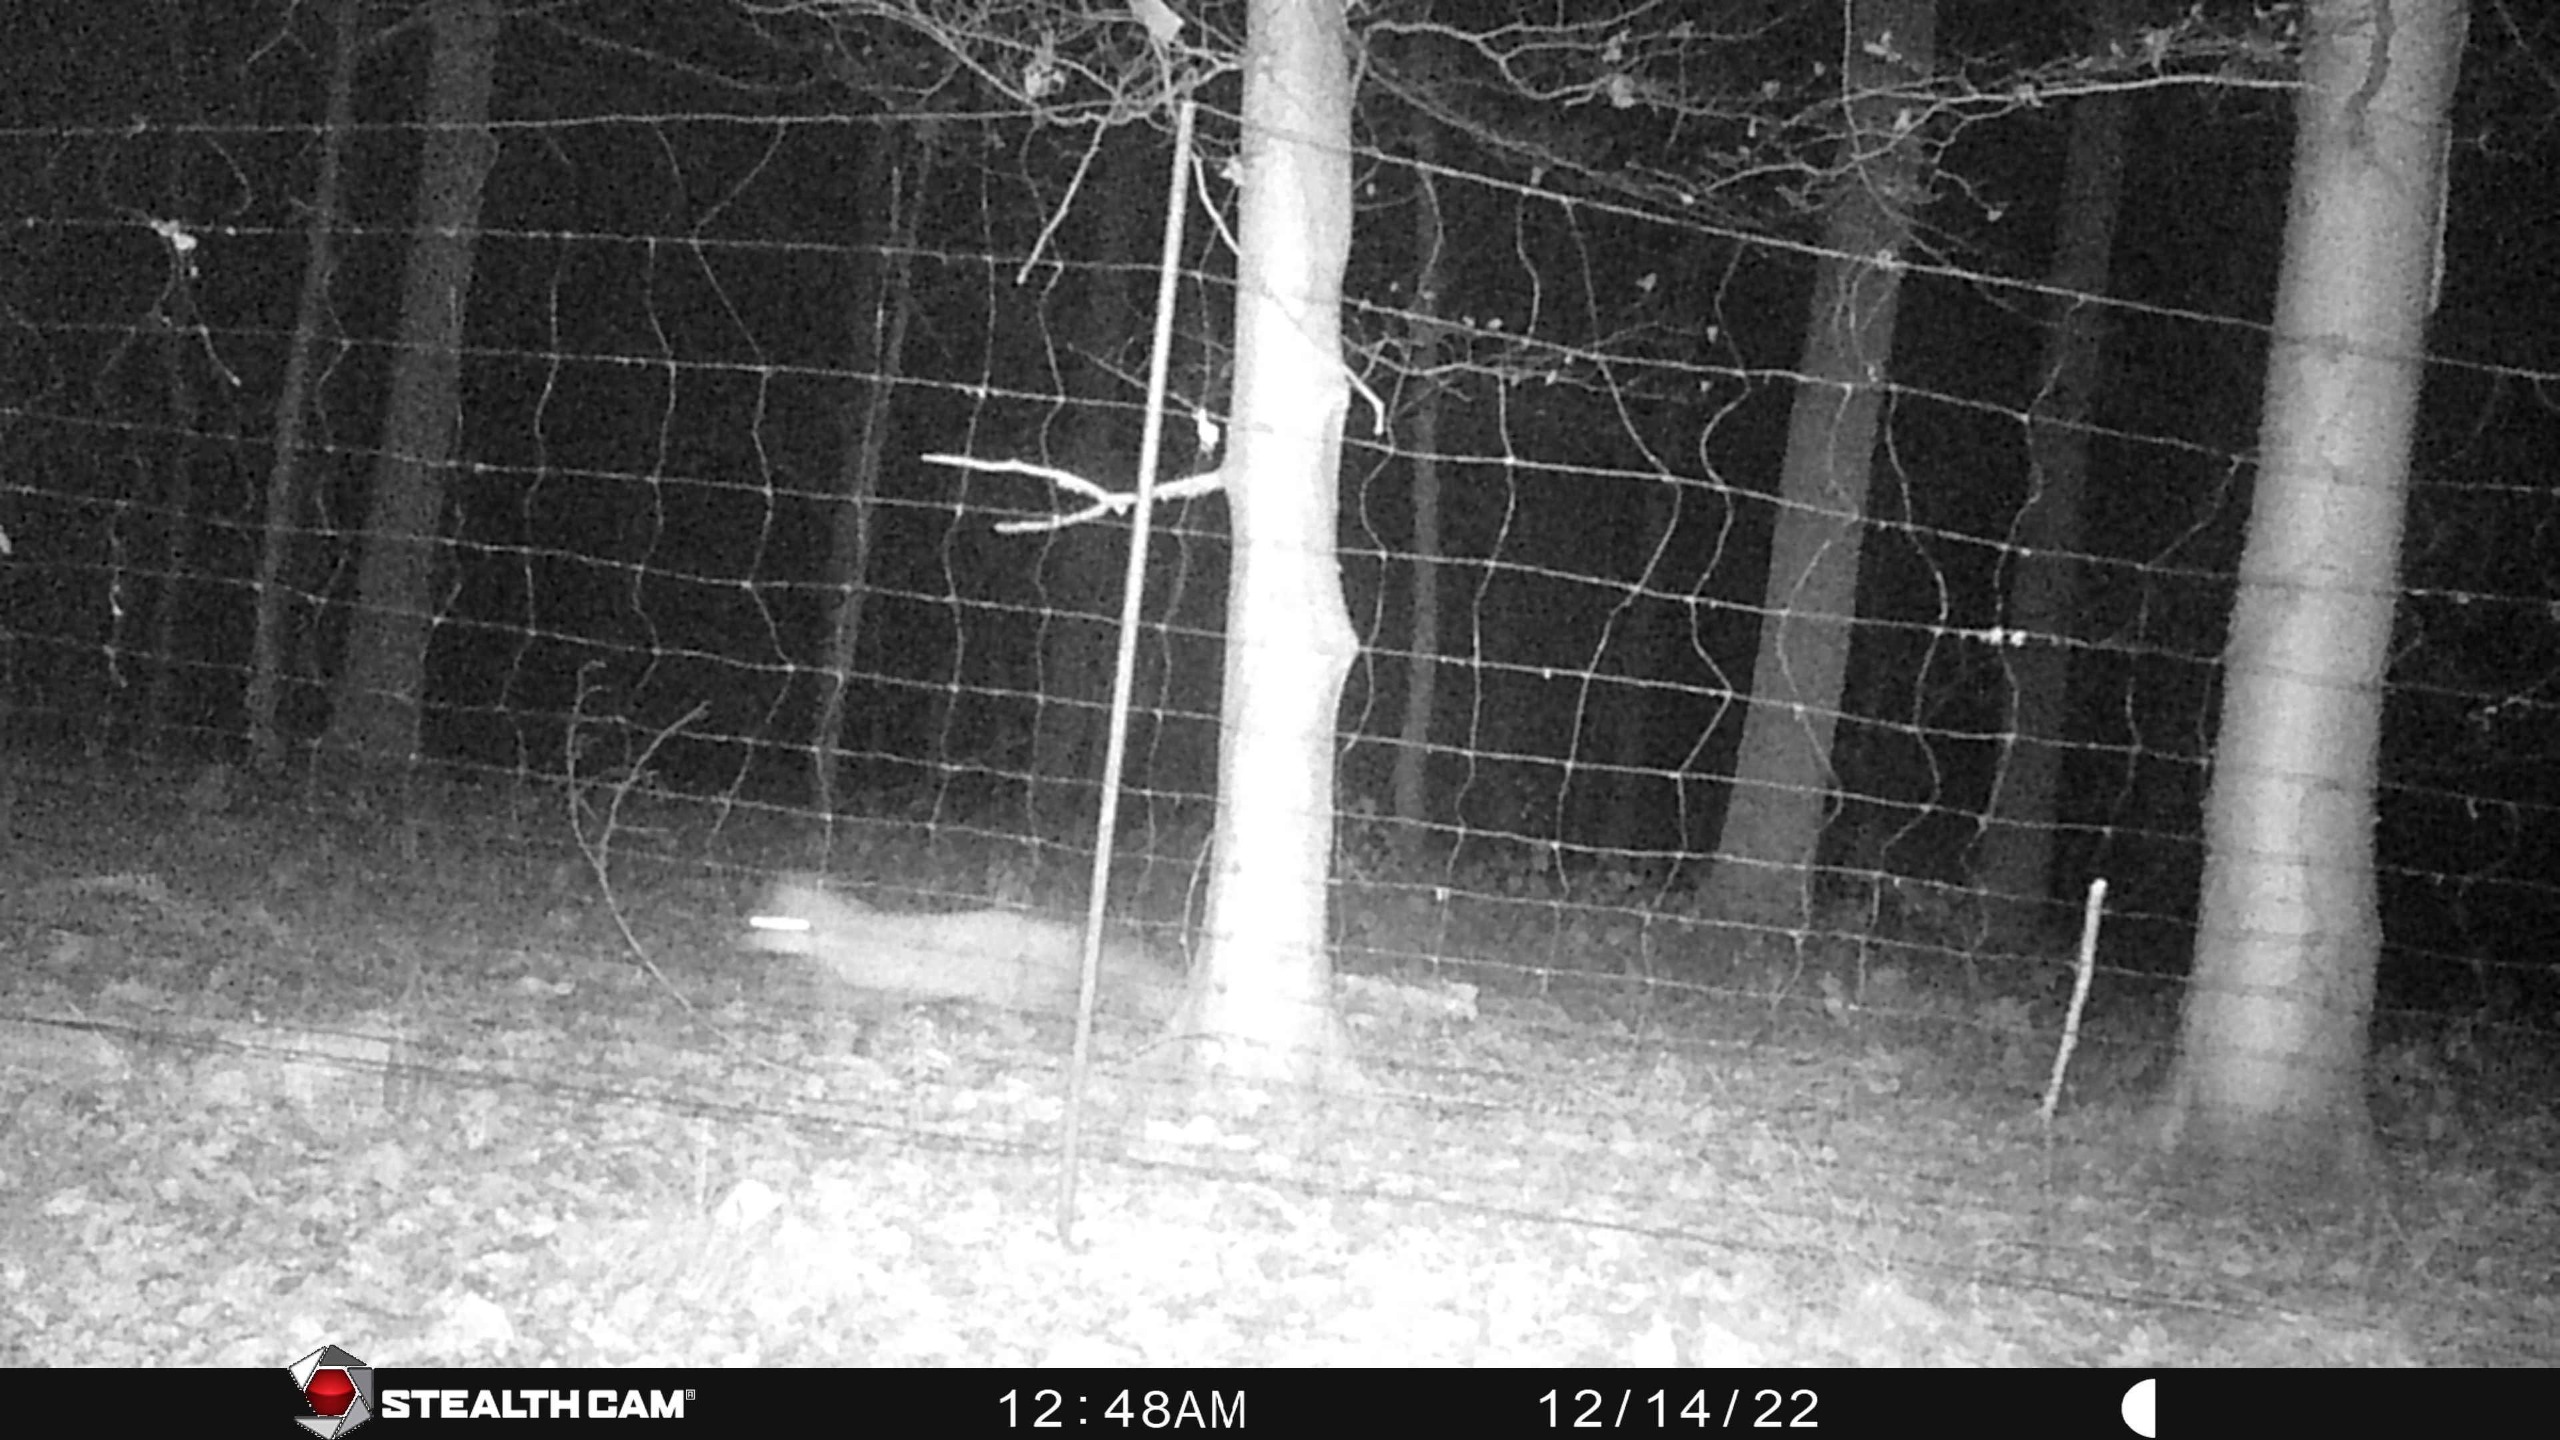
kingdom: Animalia
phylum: Chordata
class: Mammalia
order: Carnivora
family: Canidae
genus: Vulpes
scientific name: Vulpes vulpes
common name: Ræv
